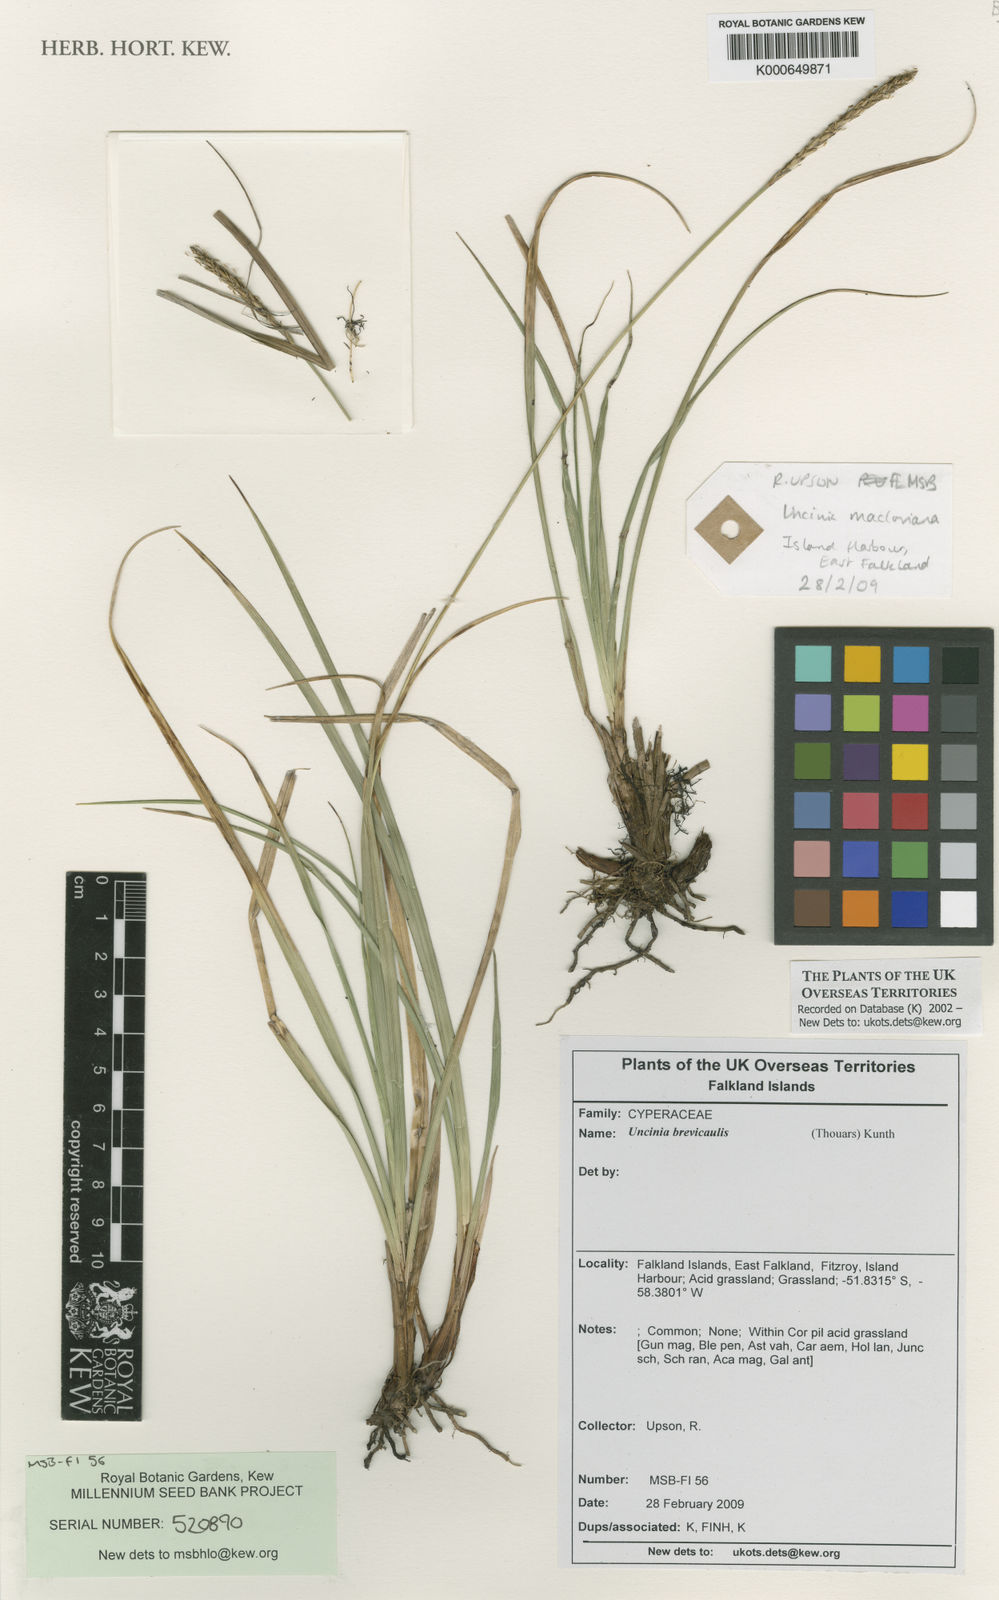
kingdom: Plantae
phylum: Tracheophyta
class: Liliopsida
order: Poales
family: Cyperaceae
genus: Carex
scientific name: Carex delacosta
